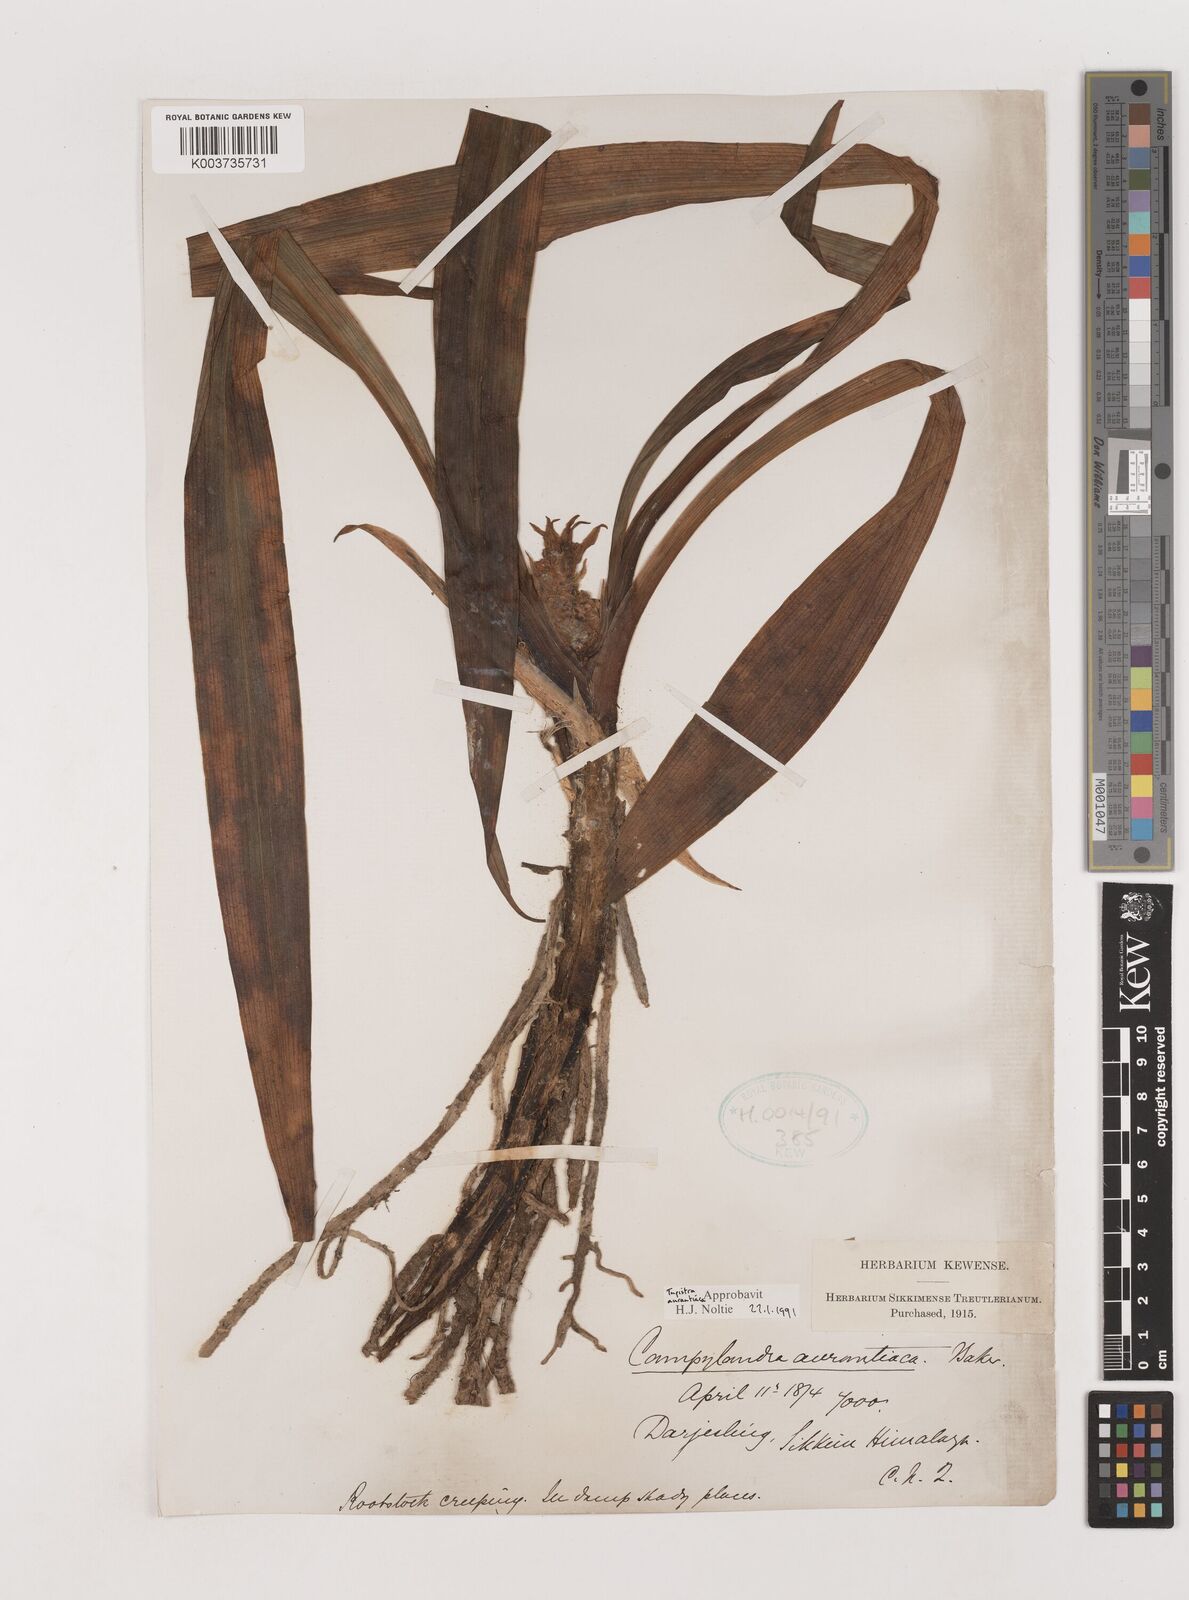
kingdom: Plantae
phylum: Tracheophyta
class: Liliopsida
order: Asparagales
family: Asparagaceae
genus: Rohdea
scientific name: Rohdea nepalensis
